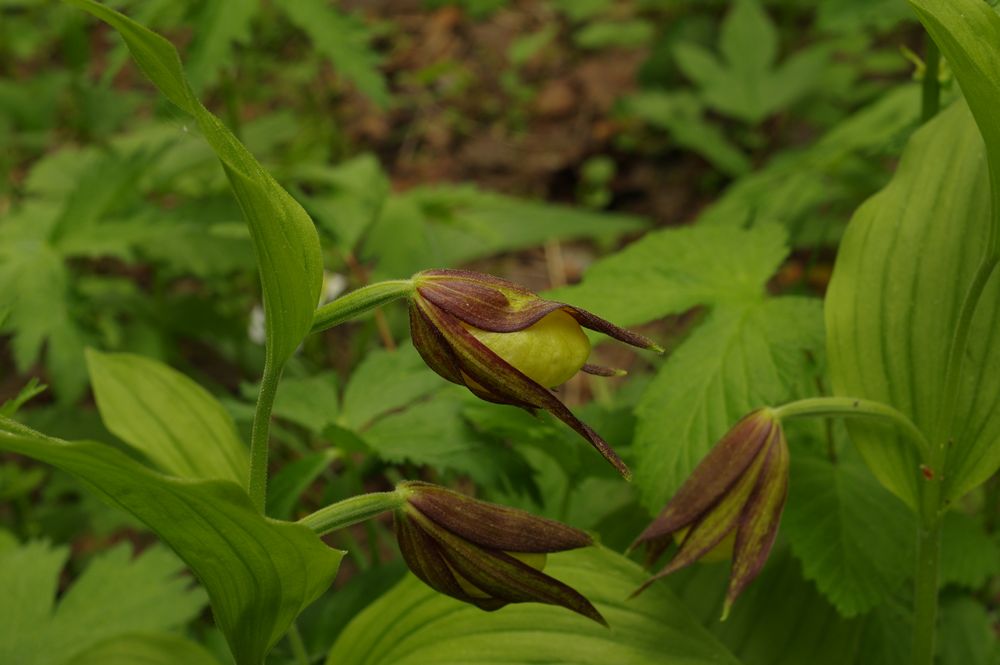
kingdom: Plantae
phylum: Tracheophyta
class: Liliopsida
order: Asparagales
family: Orchidaceae
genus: Cypripedium
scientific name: Cypripedium calceolus
